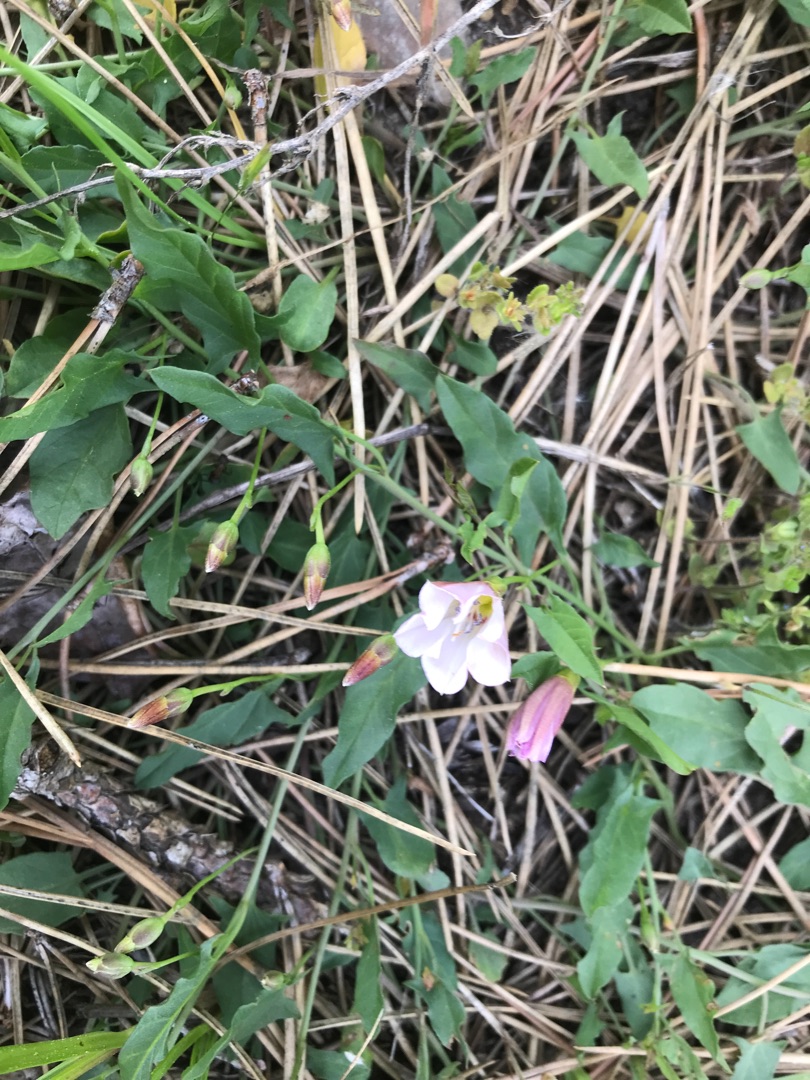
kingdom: Plantae
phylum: Tracheophyta
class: Magnoliopsida
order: Solanales
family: Convolvulaceae
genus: Convolvulus
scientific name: Convolvulus arvensis
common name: Ager-snerle
